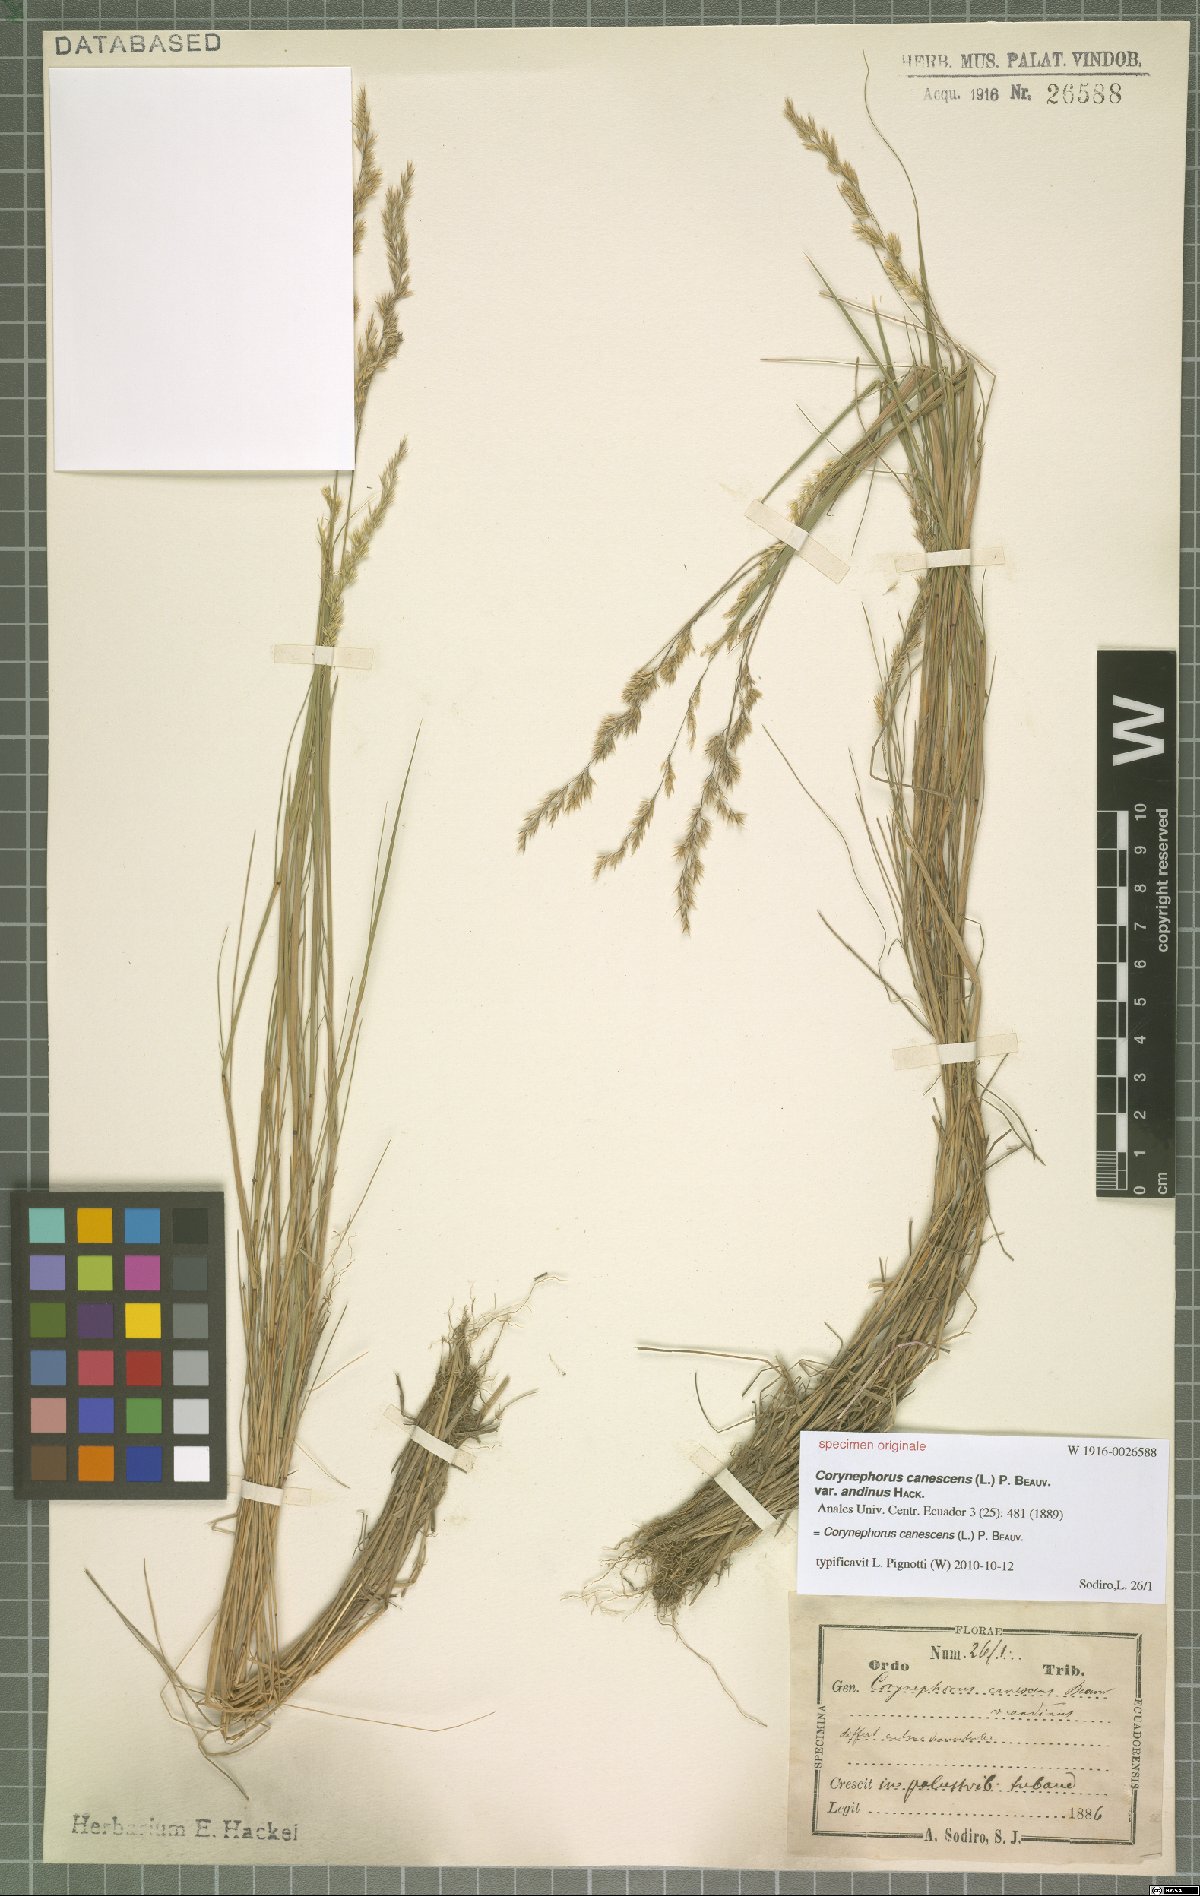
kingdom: Plantae
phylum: Tracheophyta
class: Liliopsida
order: Poales
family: Poaceae
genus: Corynephorus
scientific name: Corynephorus canescens
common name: Grey hair-grass
